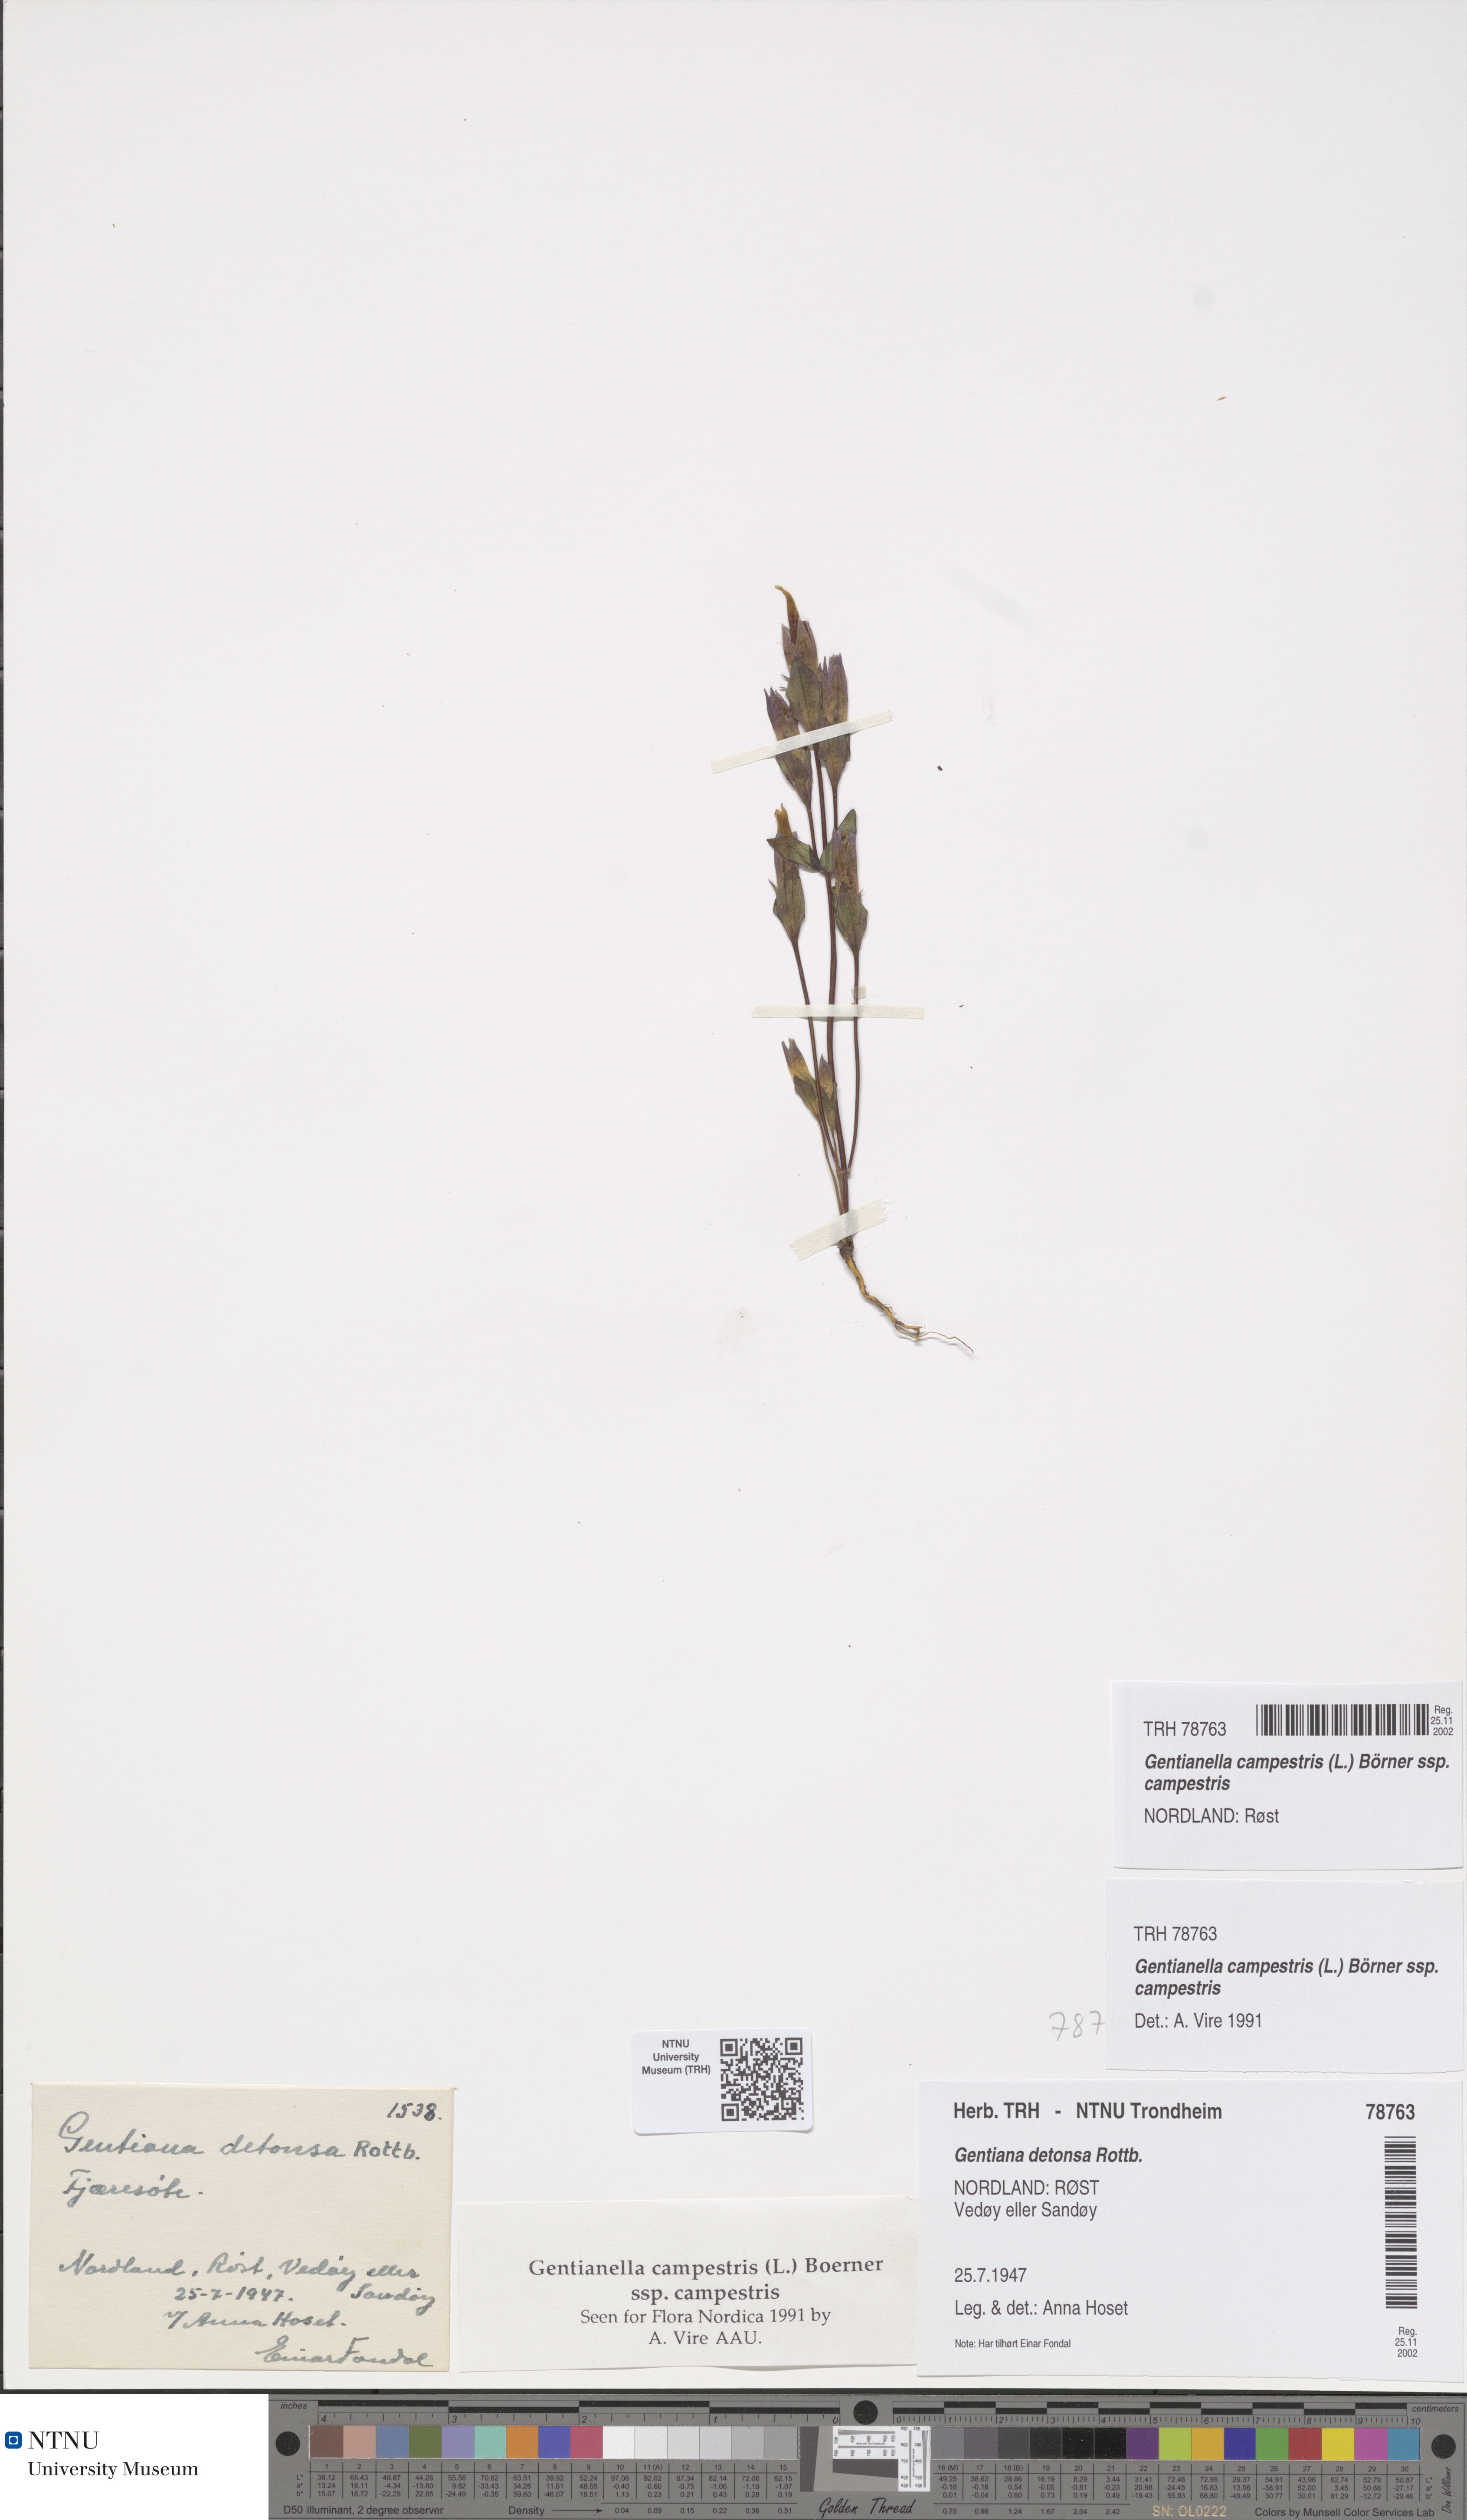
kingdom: Plantae
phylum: Tracheophyta
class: Magnoliopsida
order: Gentianales
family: Gentianaceae
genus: Gentianella
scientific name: Gentianella campestris
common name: Field gentian
